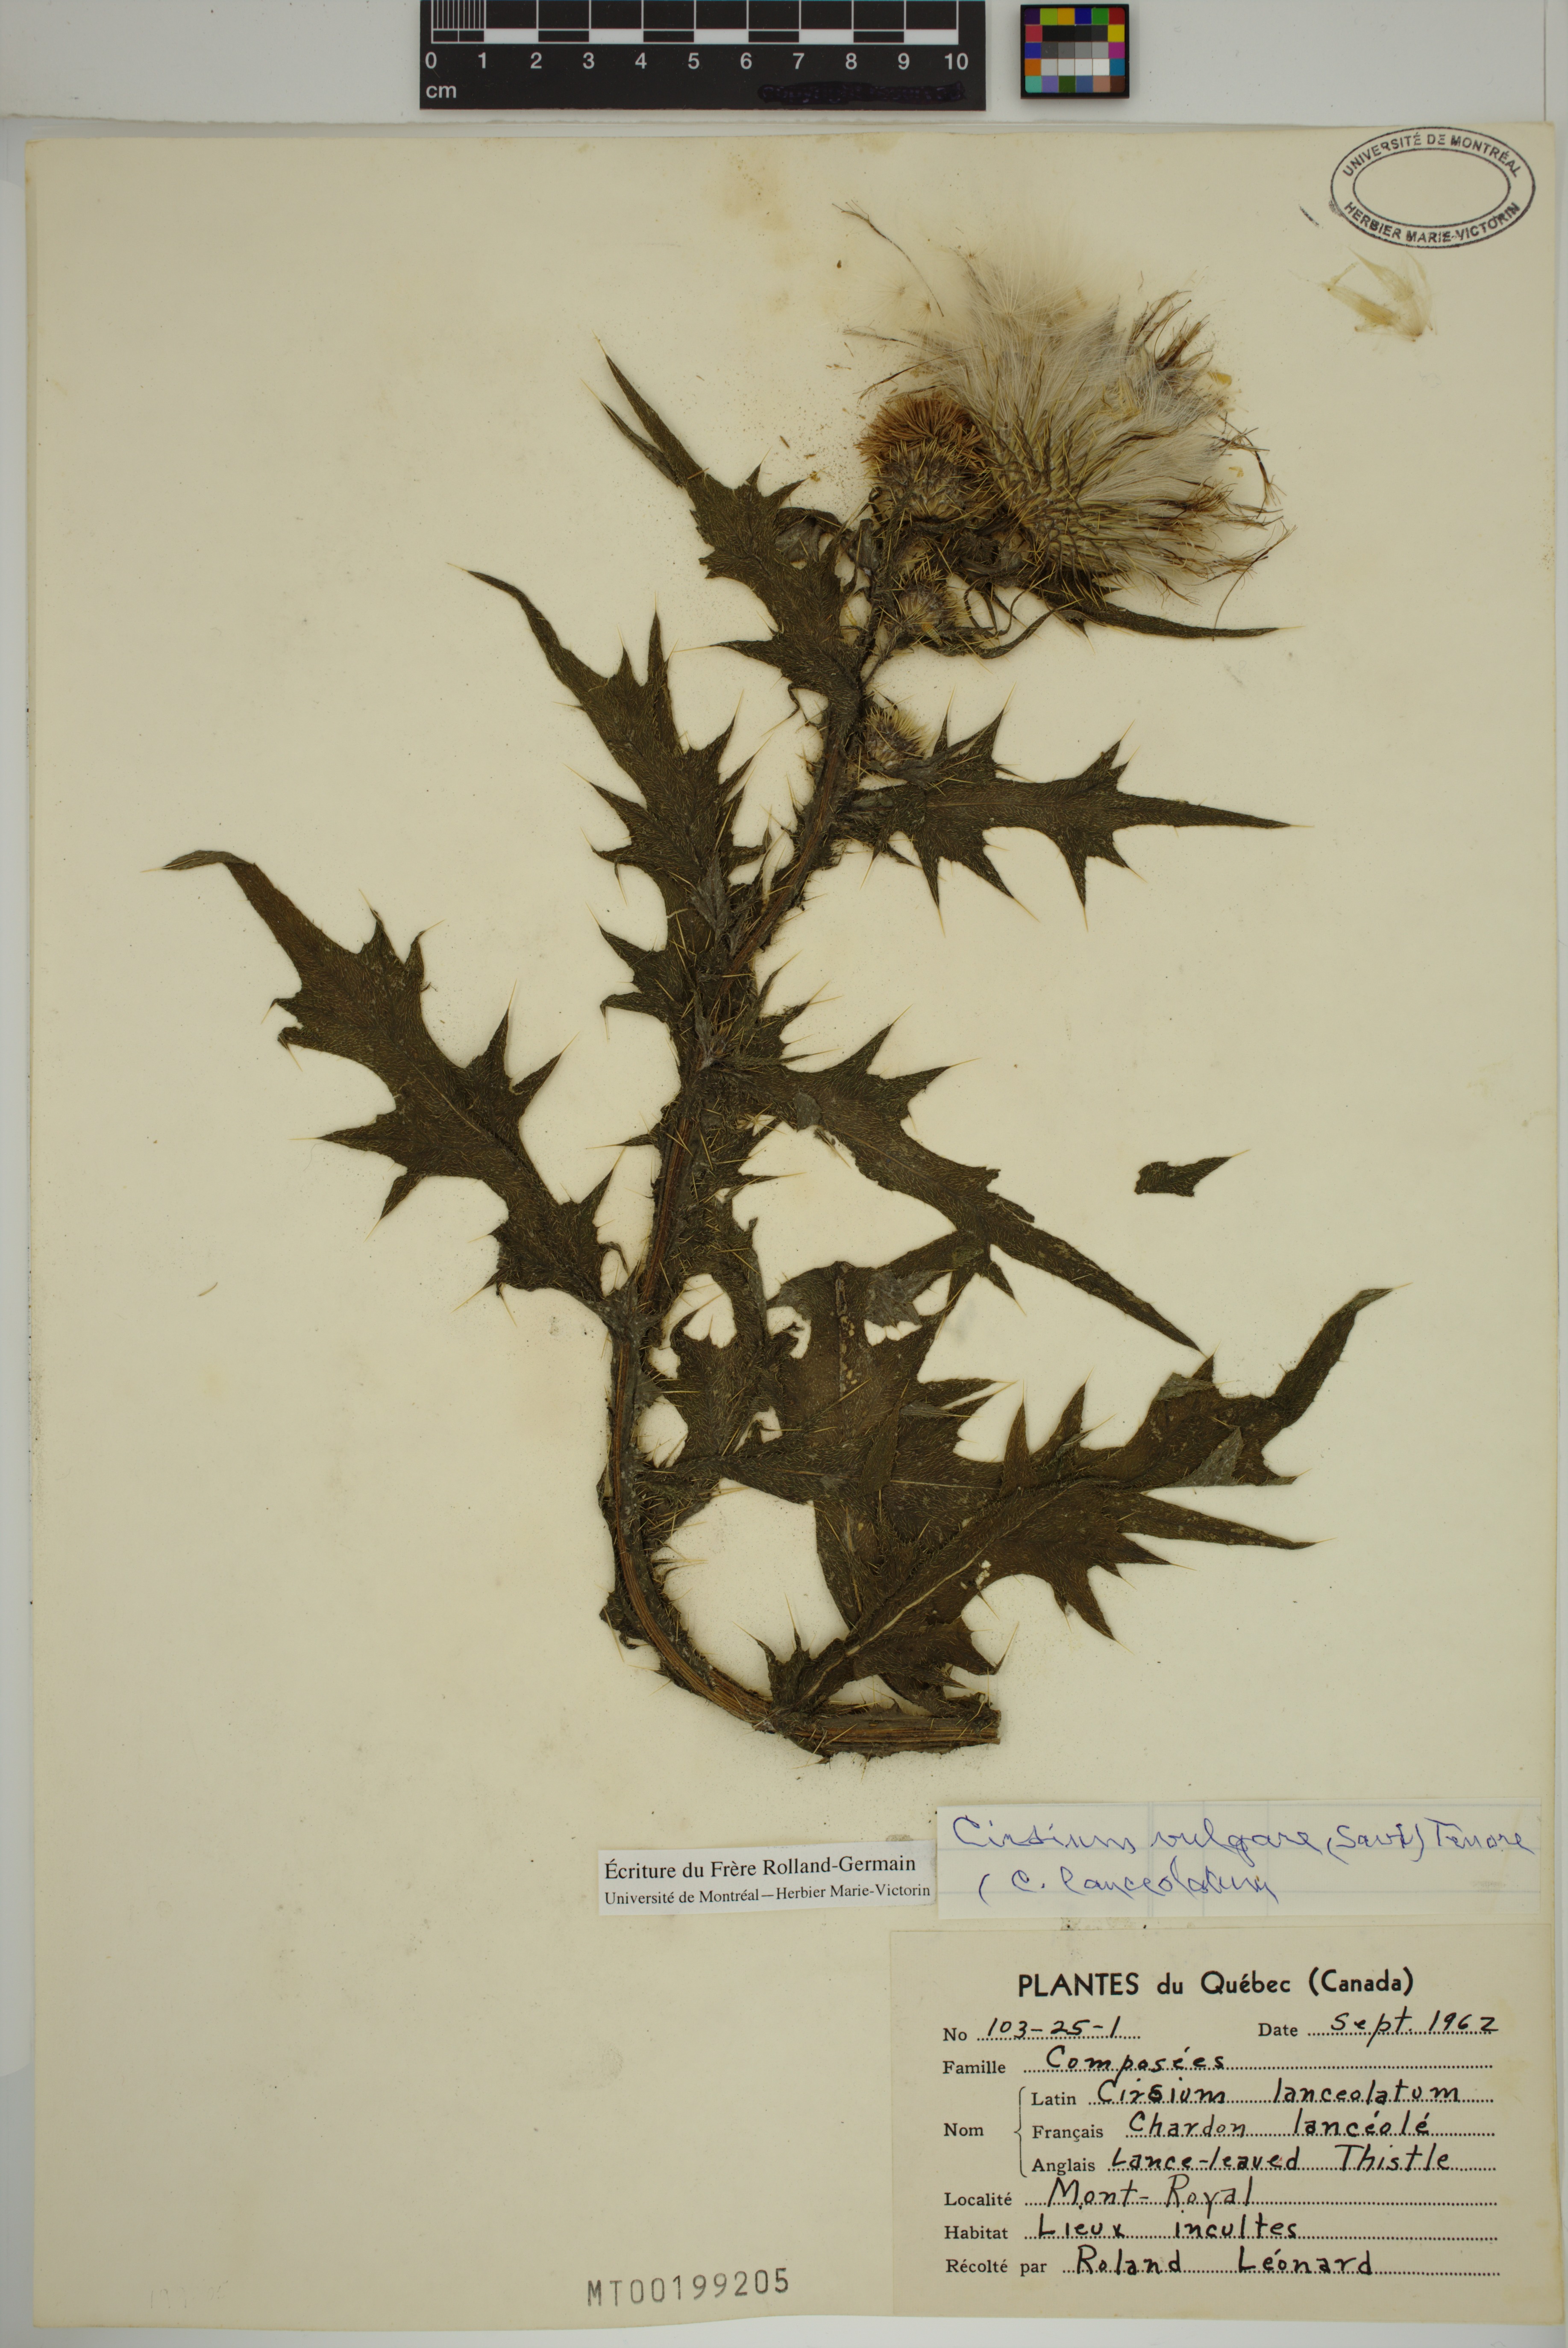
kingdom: Plantae
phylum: Tracheophyta
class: Magnoliopsida
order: Asterales
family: Asteraceae
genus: Cirsium
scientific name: Cirsium vulgare
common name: Bull thistle
